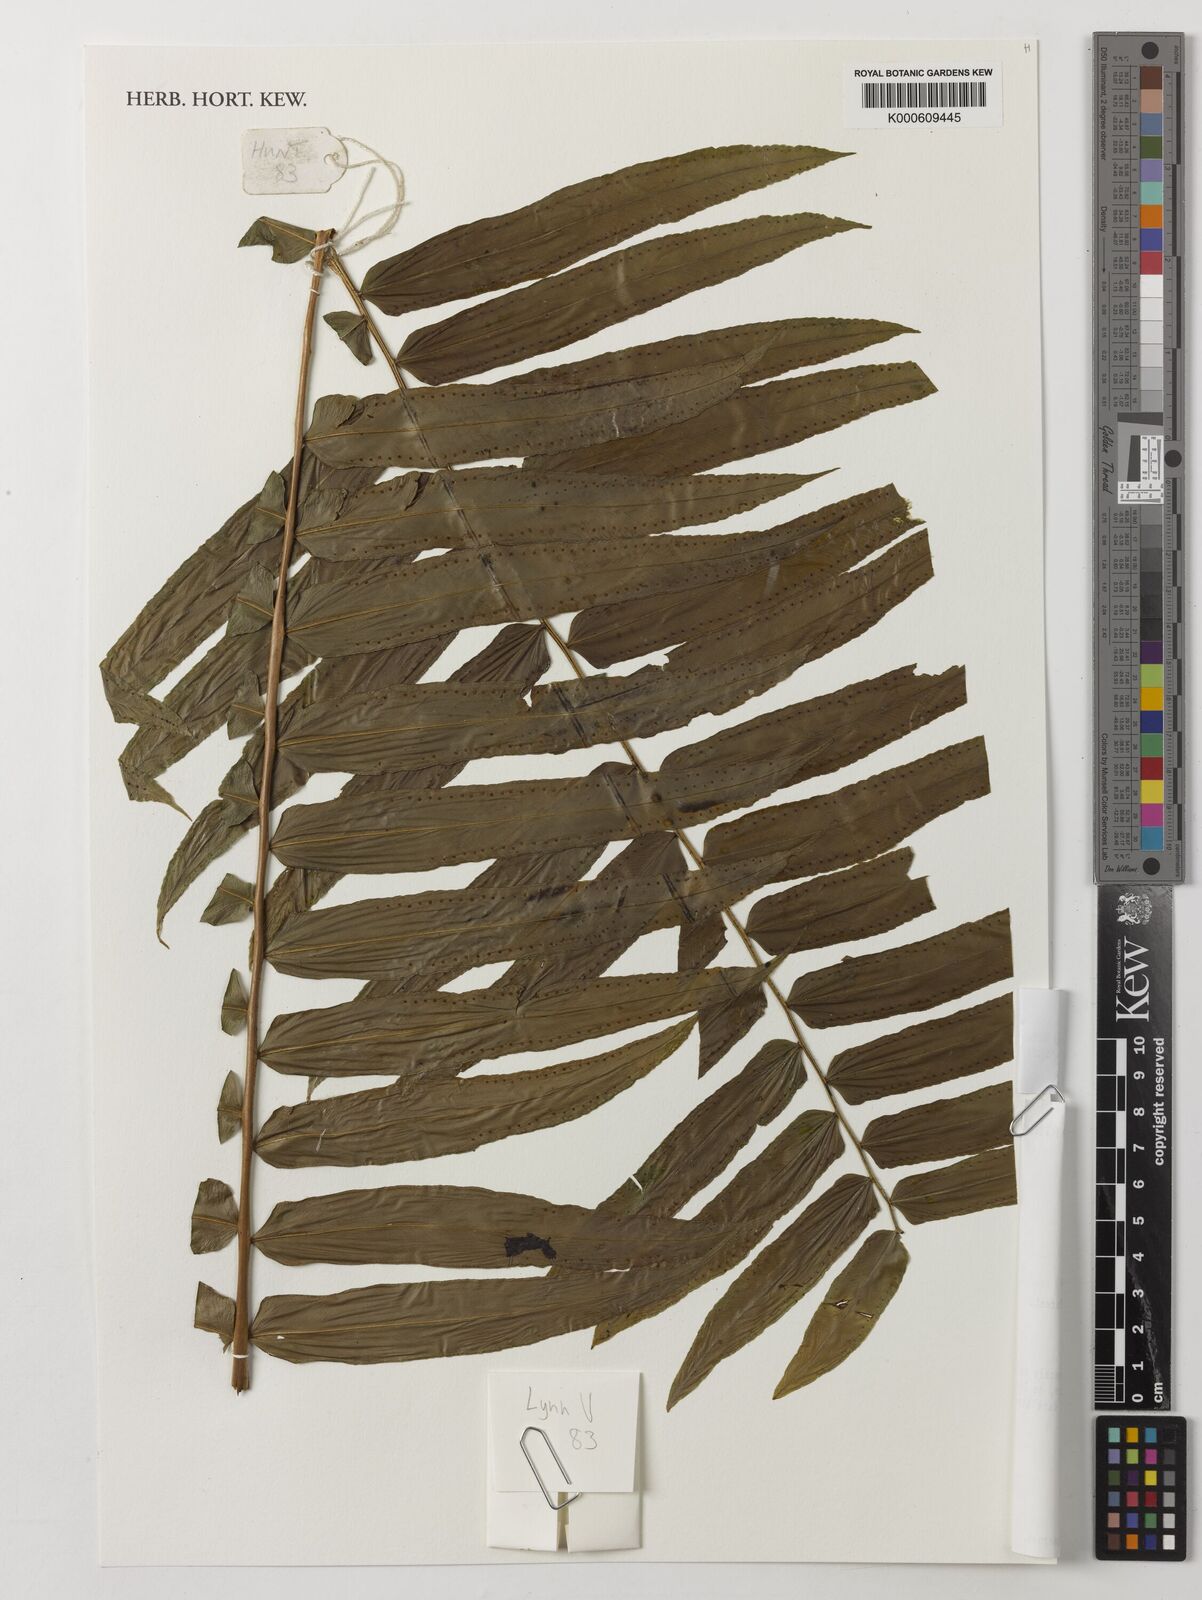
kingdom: Plantae
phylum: Tracheophyta
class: Polypodiopsida
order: Polypodiales
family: Nephrolepidaceae
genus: Nephrolepis
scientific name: Nephrolepis biserrata
